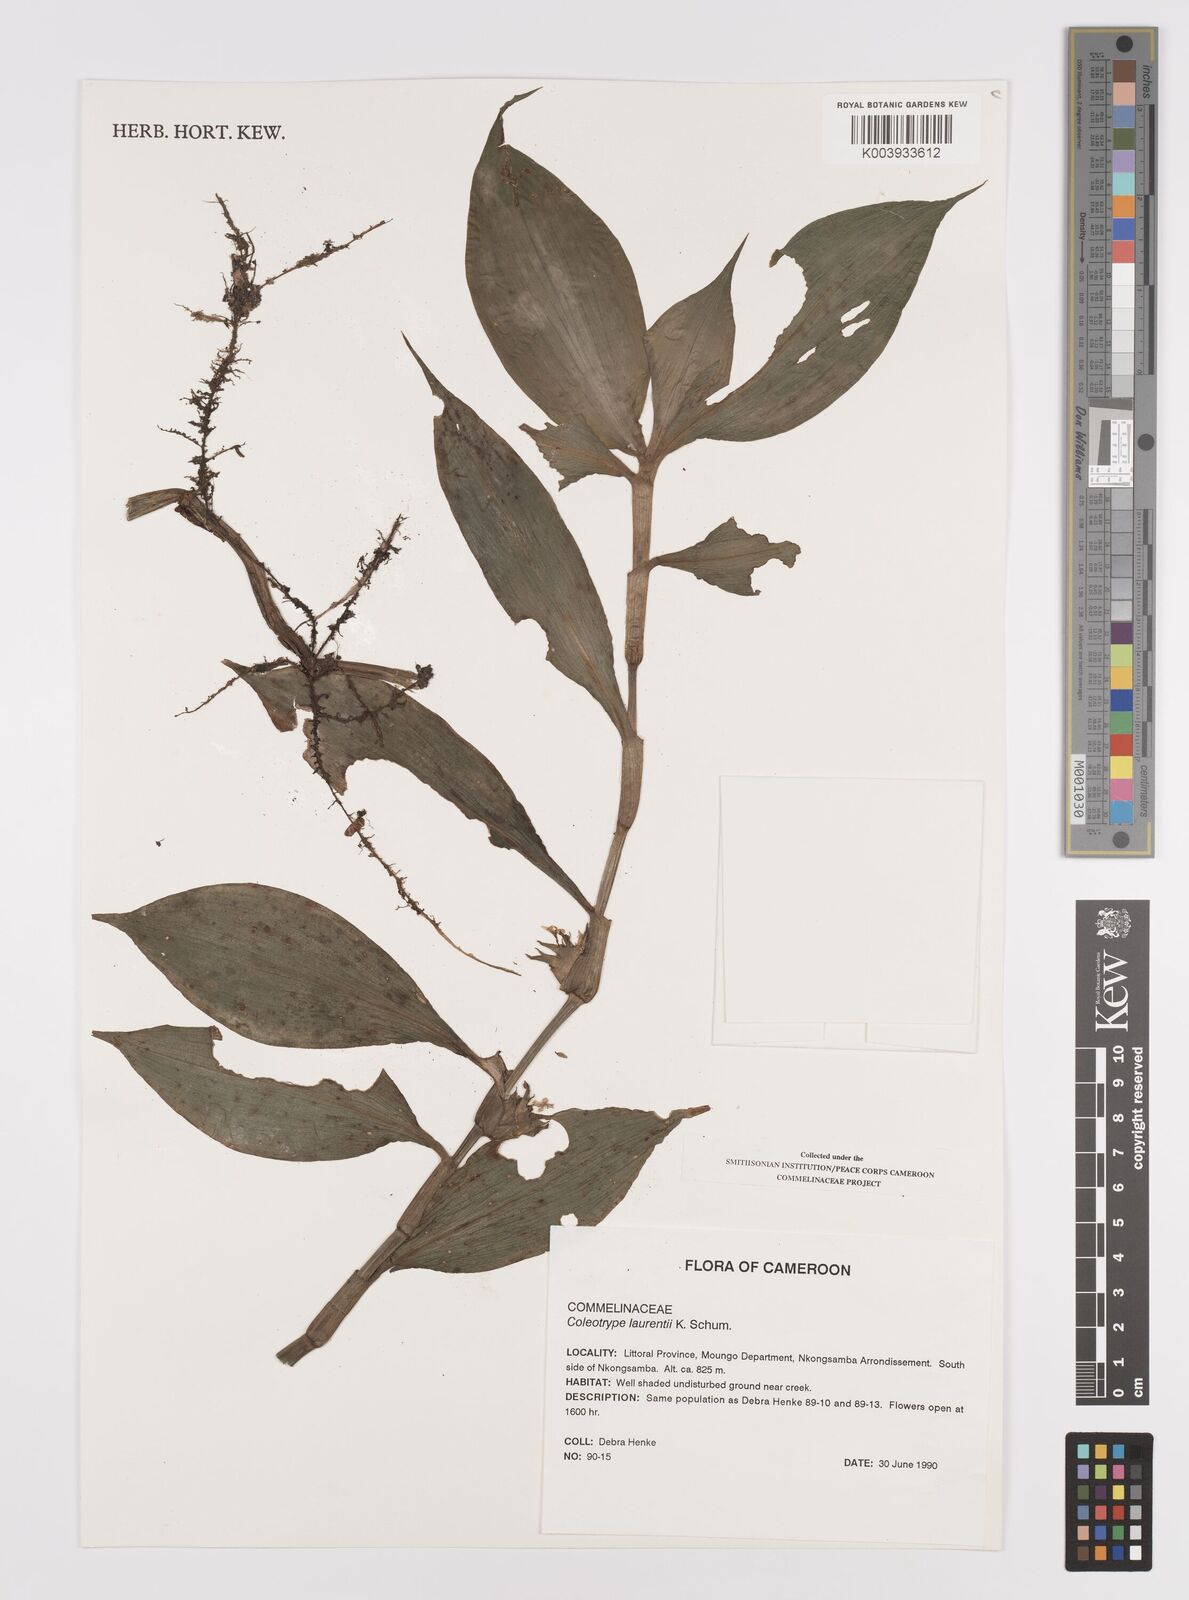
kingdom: Plantae
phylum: Tracheophyta
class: Liliopsida
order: Commelinales
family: Commelinaceae
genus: Coleotrype
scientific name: Coleotrype laurentii
